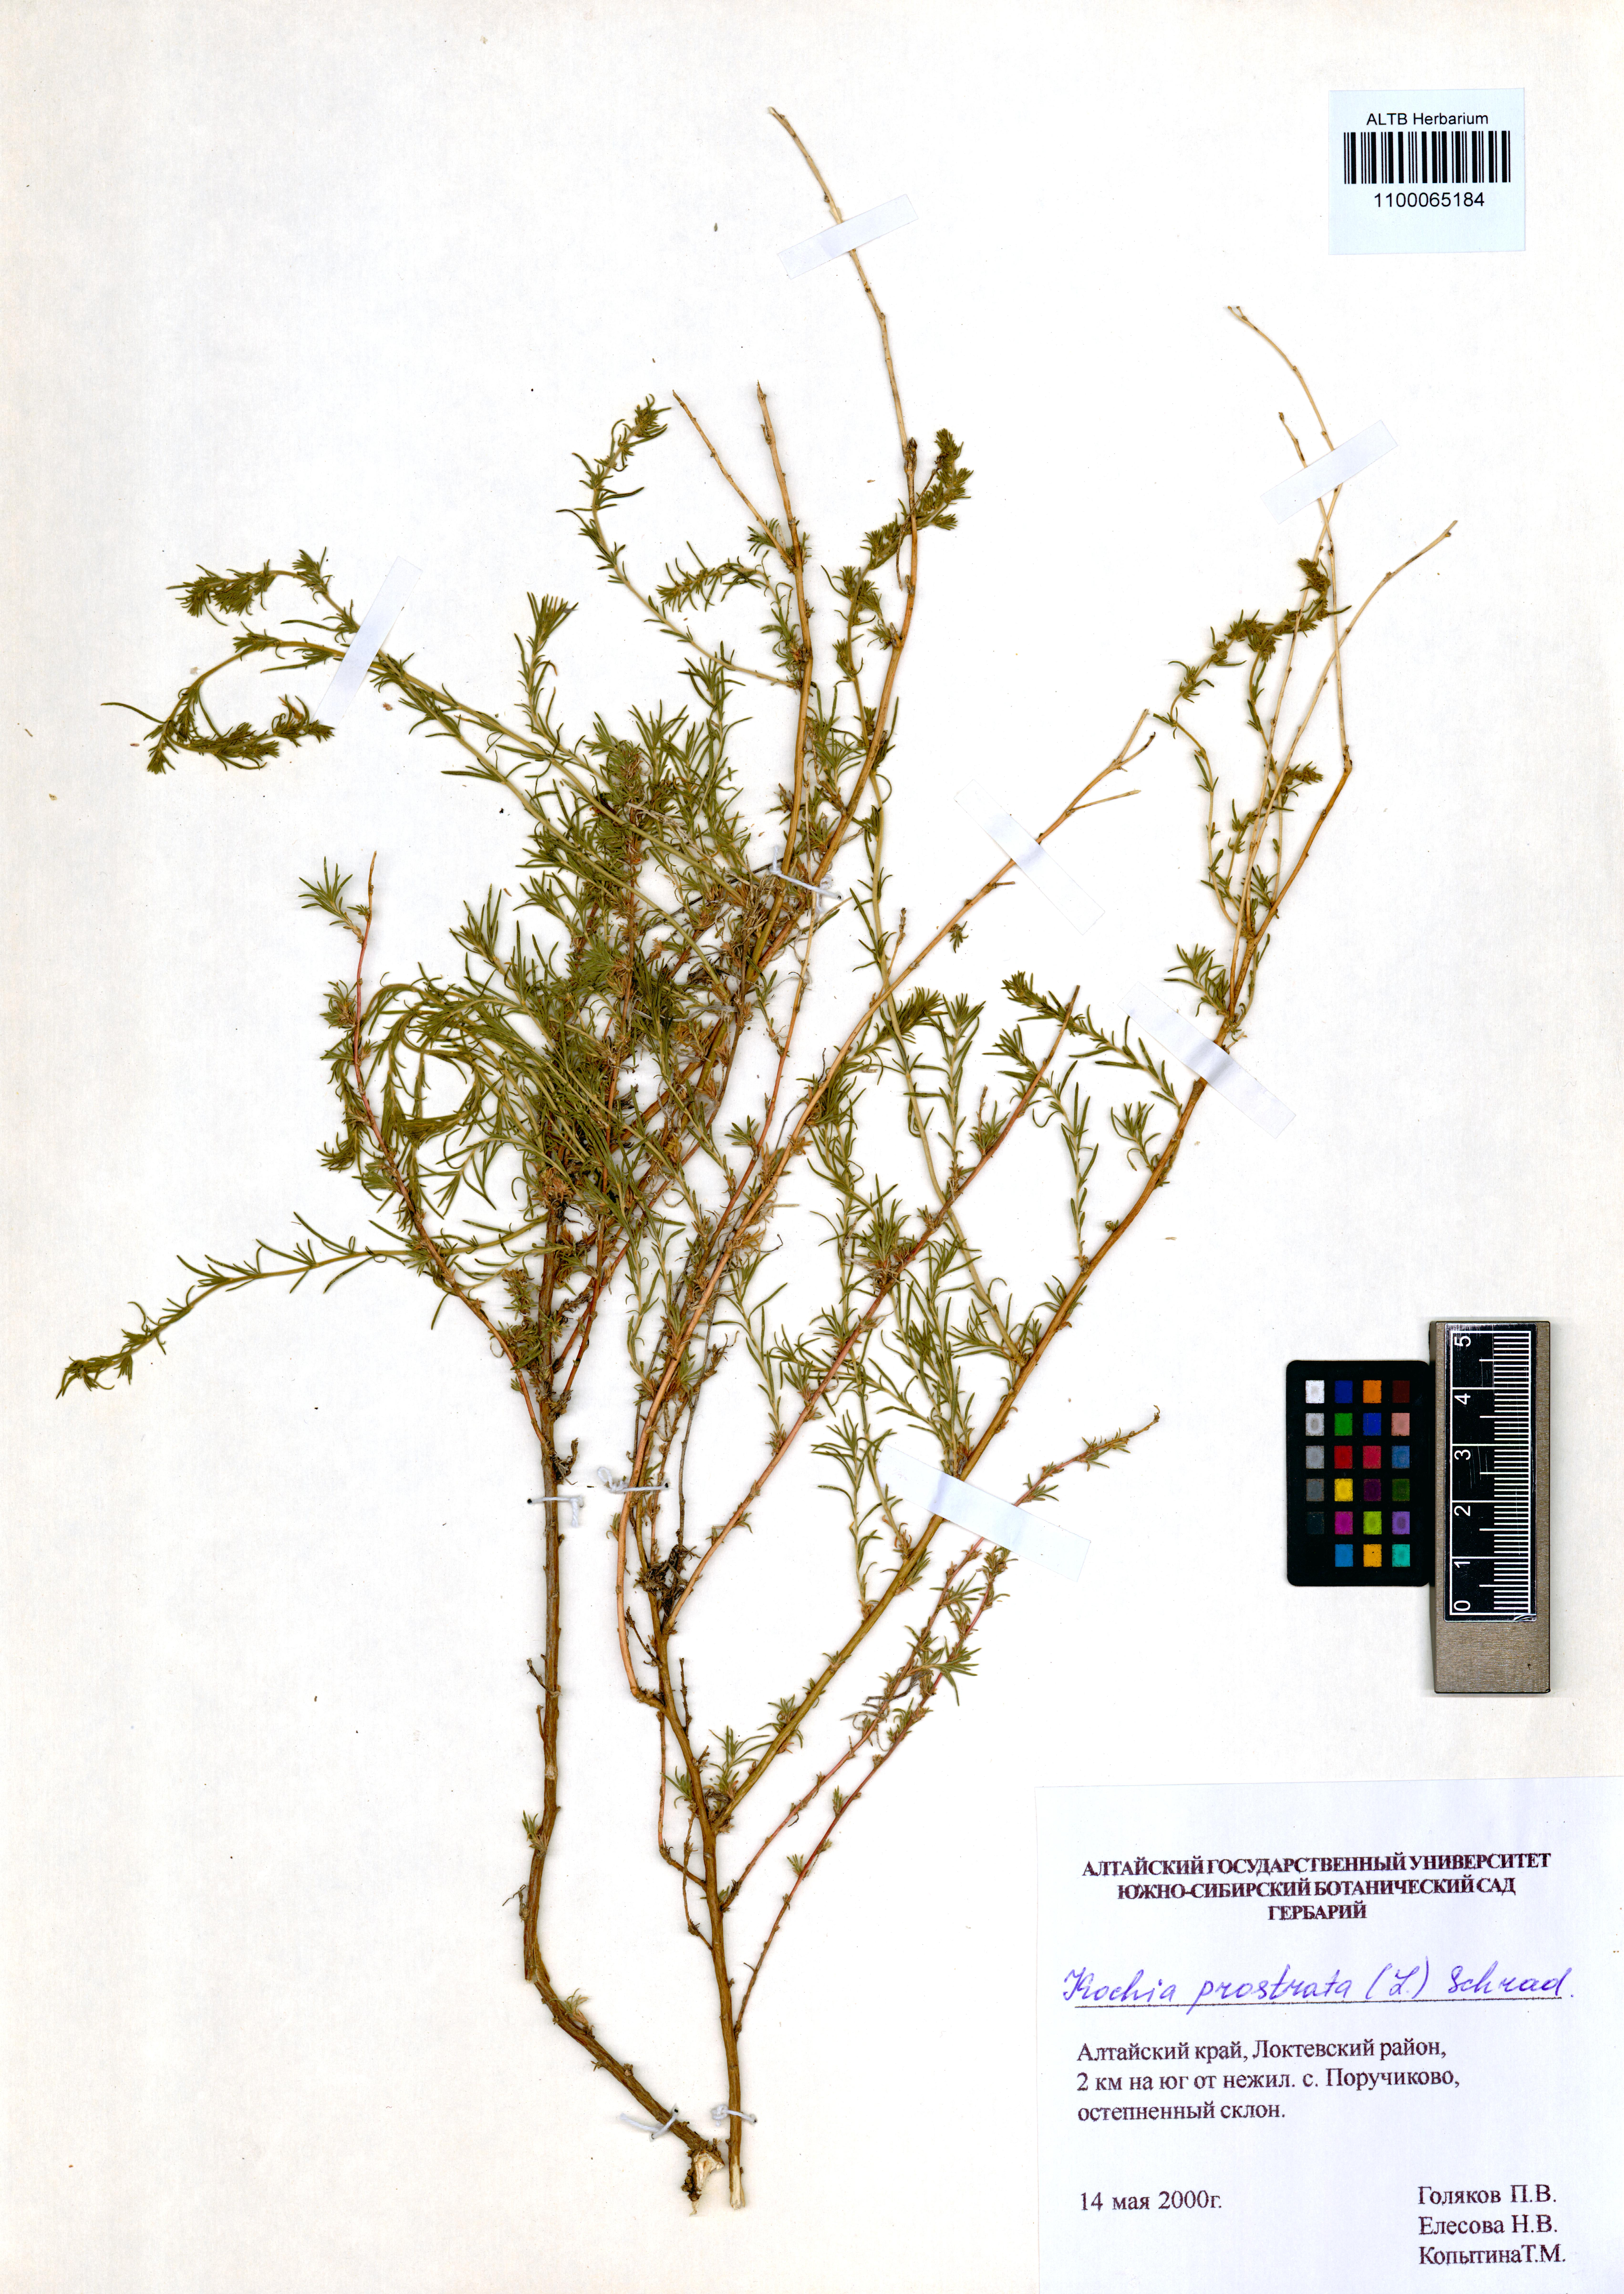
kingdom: Plantae
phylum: Tracheophyta
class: Magnoliopsida
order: Caryophyllales
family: Amaranthaceae
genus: Bassia
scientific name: Bassia prostrata
